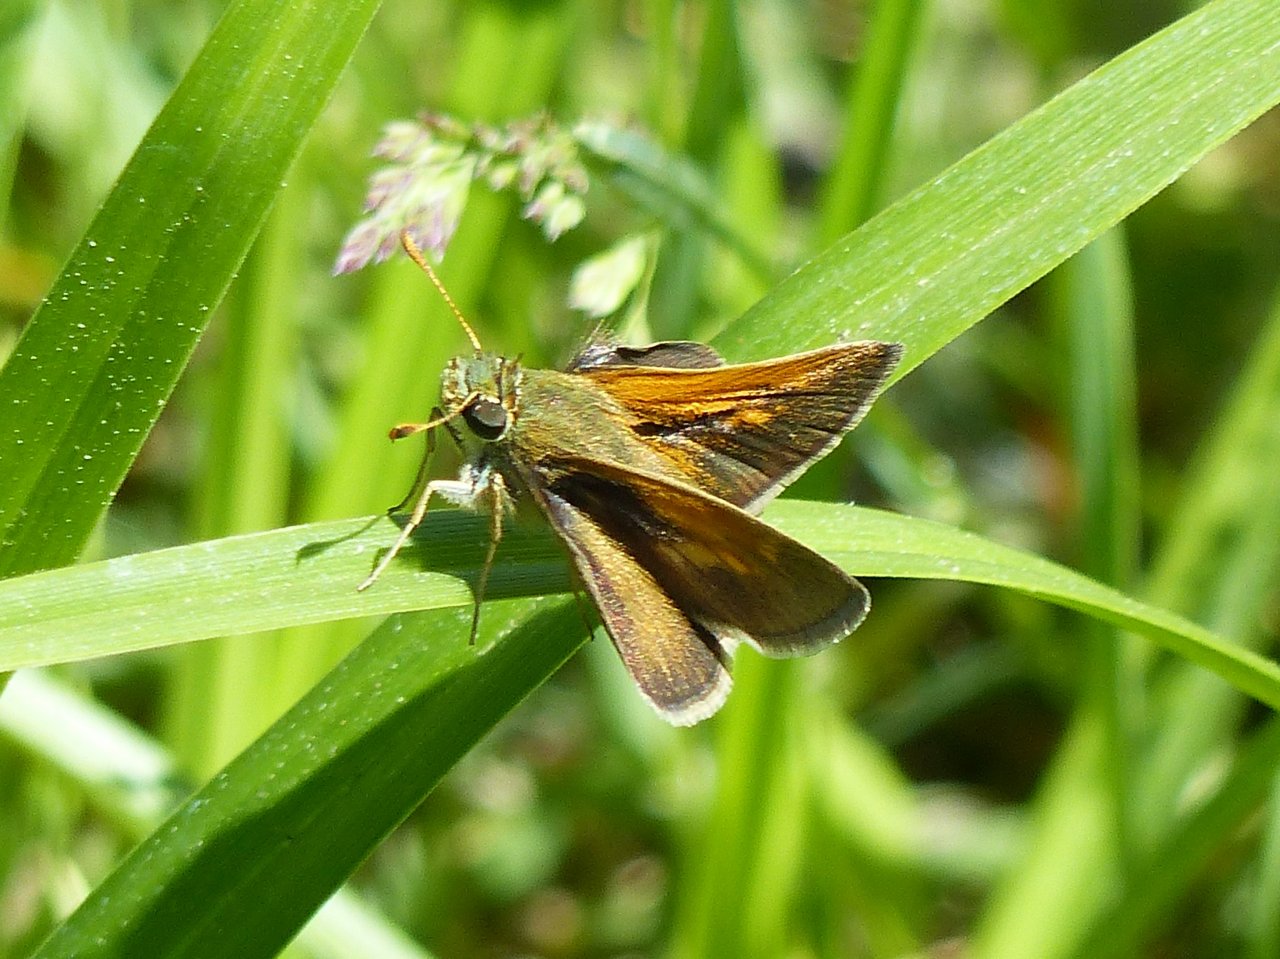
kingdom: Animalia
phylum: Arthropoda
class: Insecta
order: Lepidoptera
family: Hesperiidae
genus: Polites
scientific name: Polites themistocles
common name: Tawny-edged Skipper
